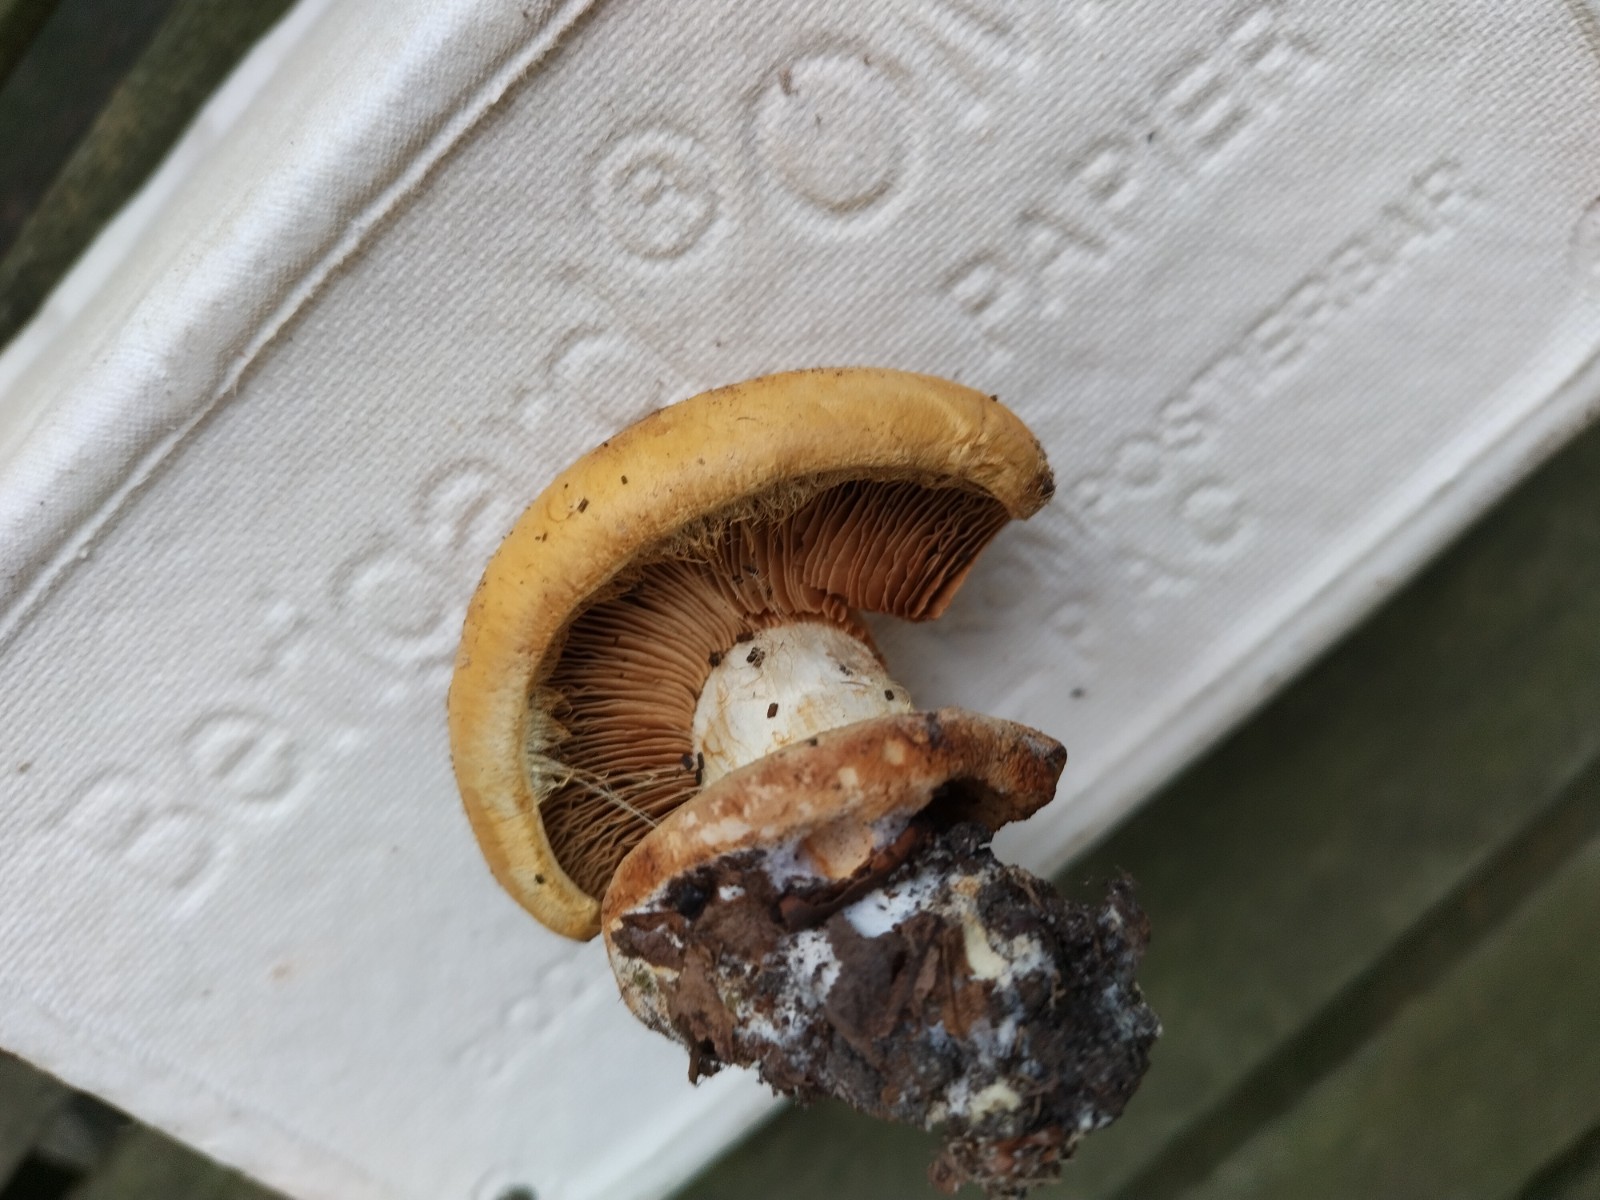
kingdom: Fungi
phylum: Basidiomycota
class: Agaricomycetes
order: Agaricales
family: Cortinariaceae
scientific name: Cortinariaceae
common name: slørhatfamilien
